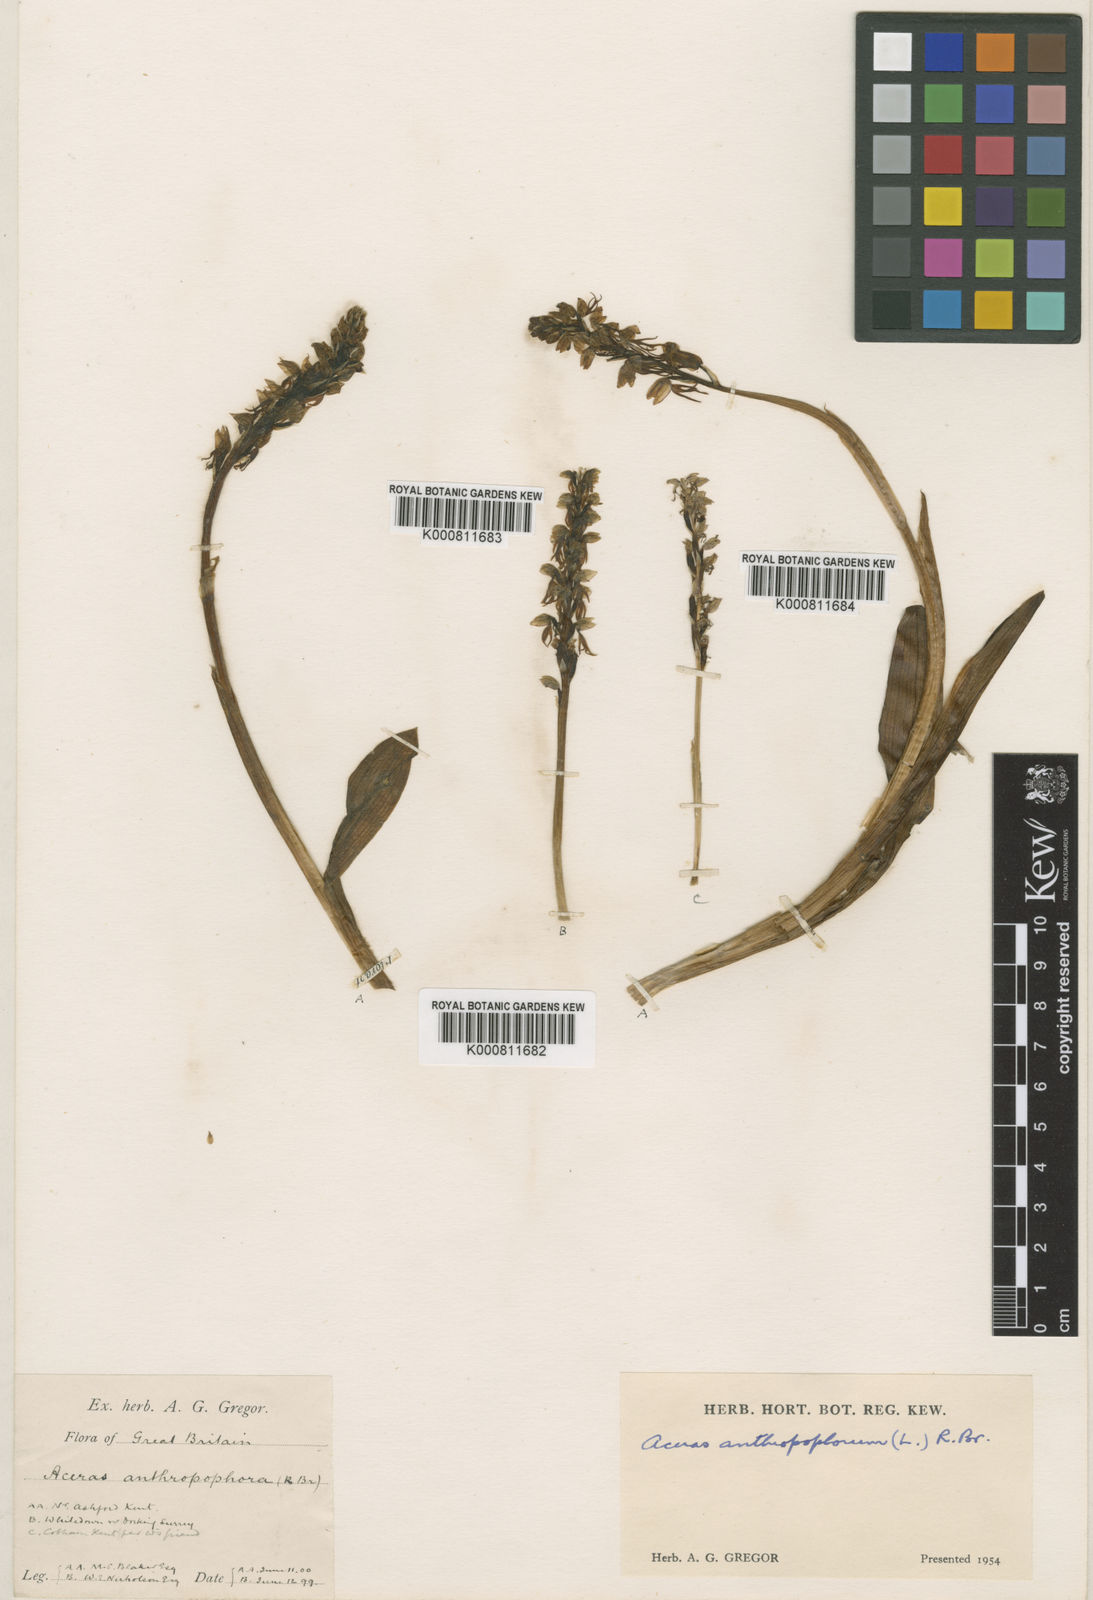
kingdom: Plantae
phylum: Tracheophyta
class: Liliopsida
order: Asparagales
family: Orchidaceae
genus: Orchis
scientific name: Orchis
